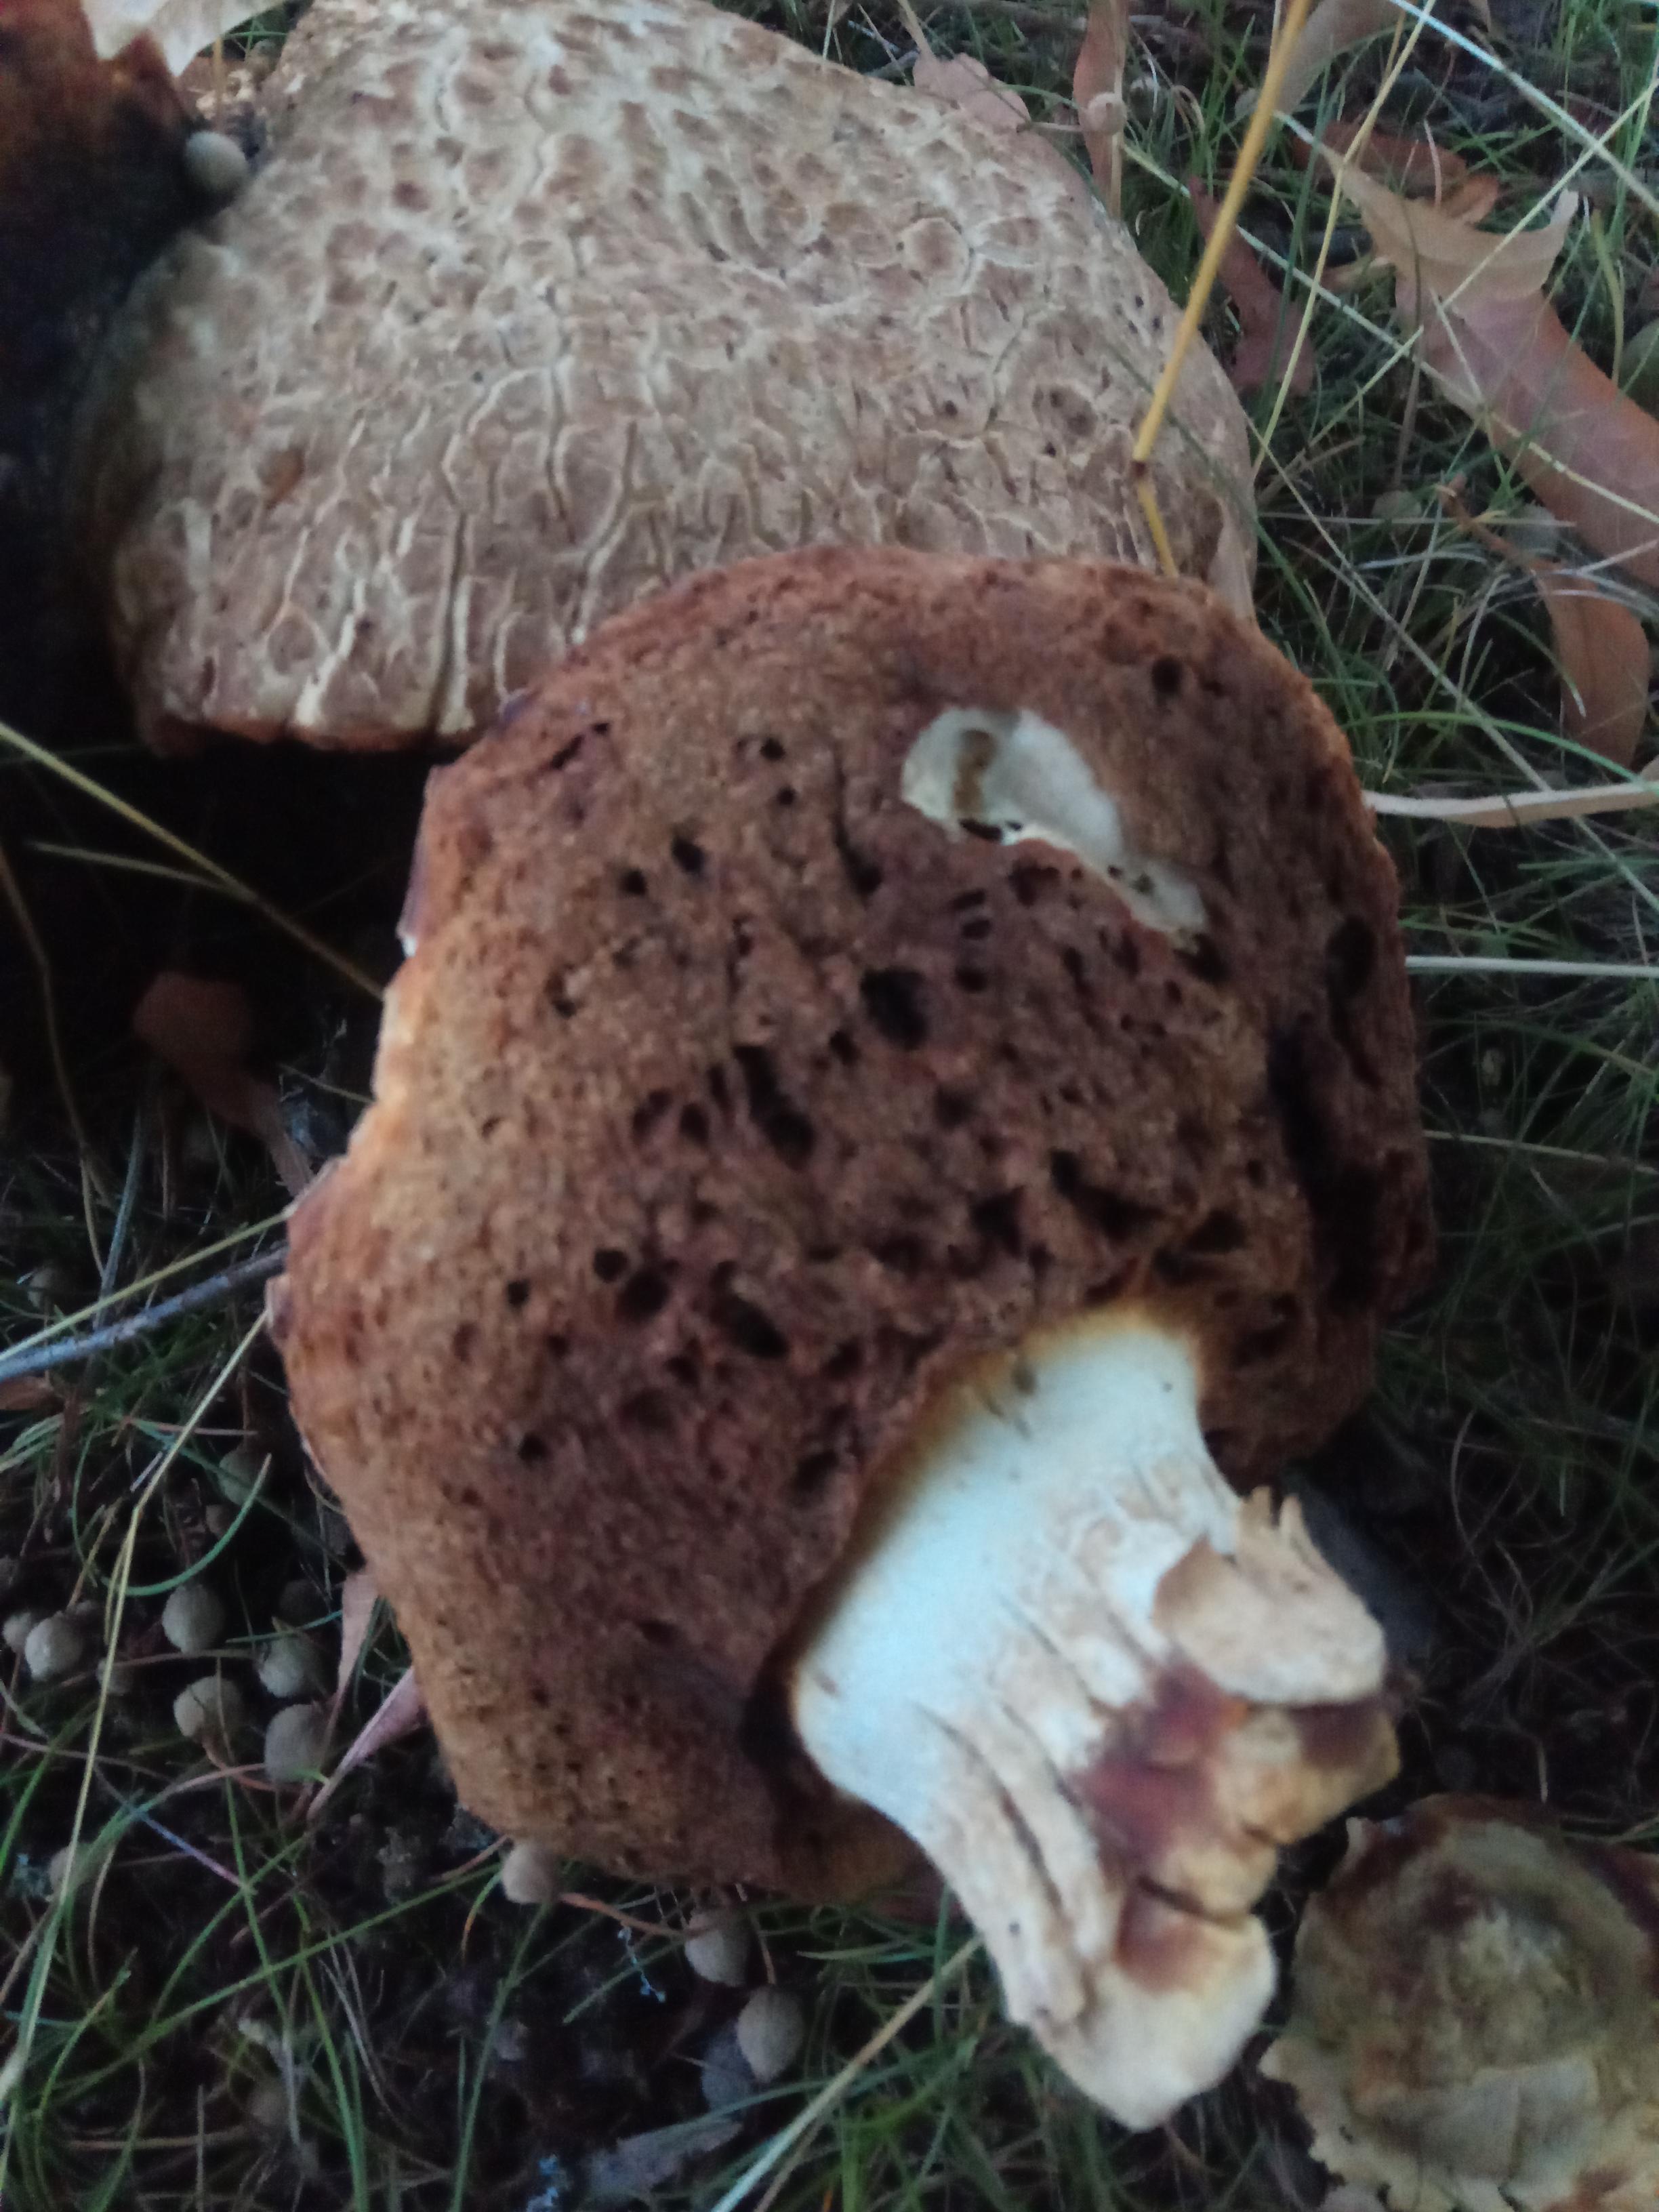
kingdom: Fungi
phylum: Basidiomycota
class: Agaricomycetes
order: Boletales
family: Boletaceae
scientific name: Boletaceae
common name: rørhatfamilien
